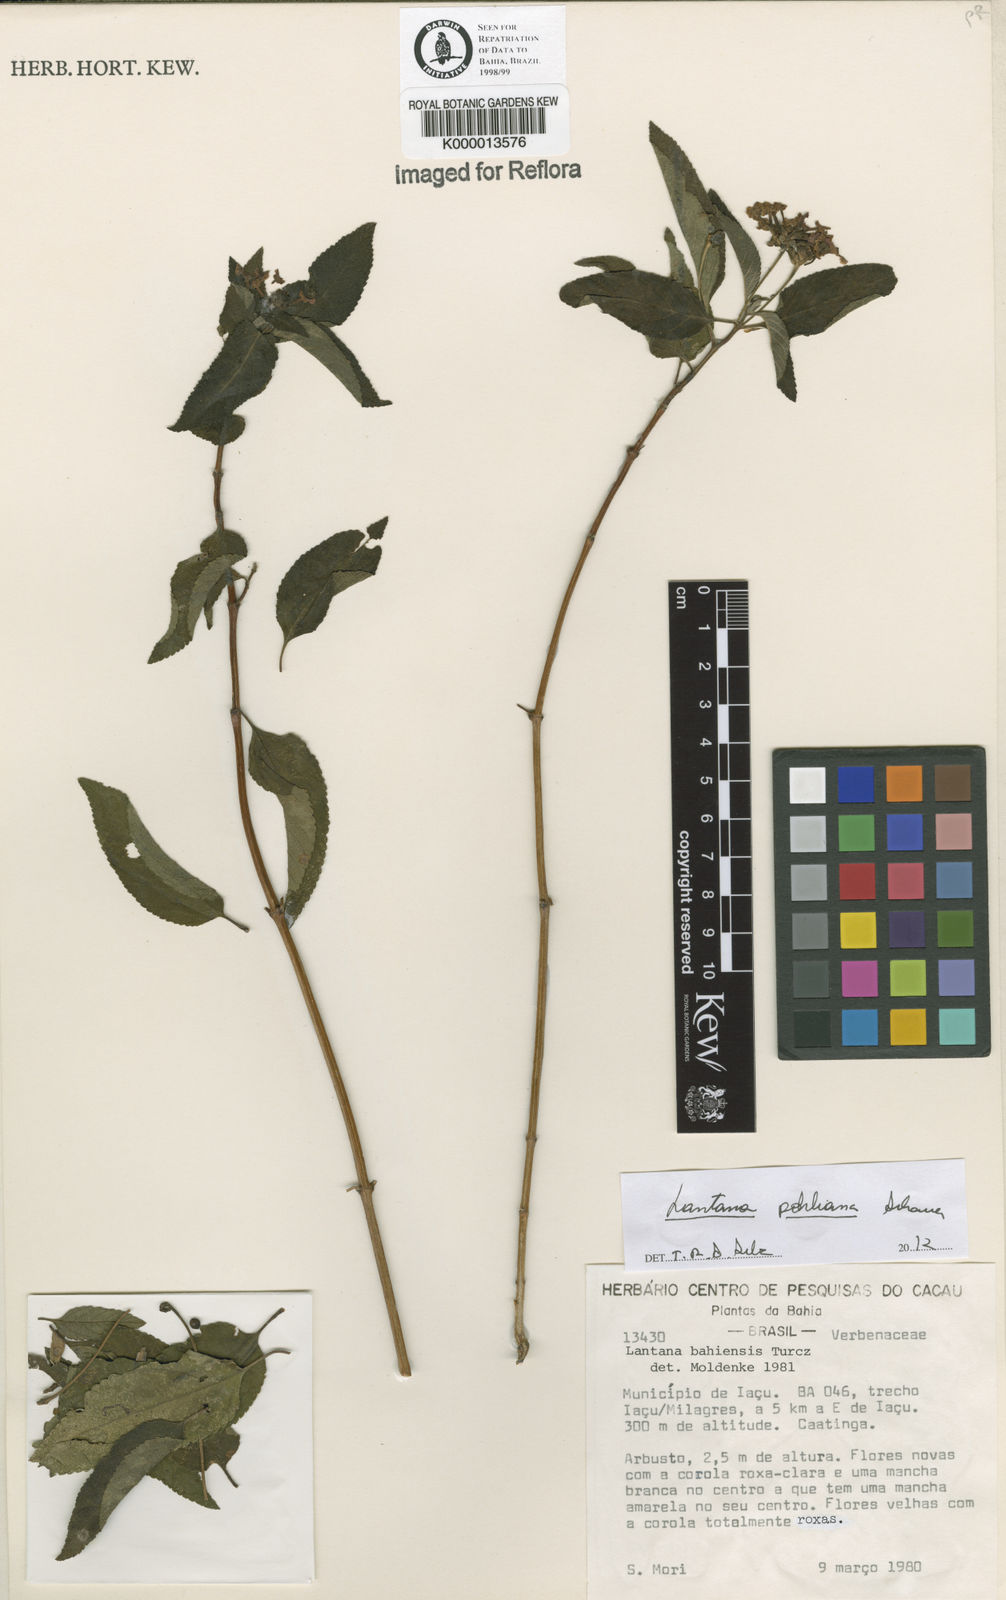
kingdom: Plantae
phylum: Tracheophyta
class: Magnoliopsida
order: Lamiales
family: Verbenaceae
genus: Lantana
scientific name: Lantana pohliana
